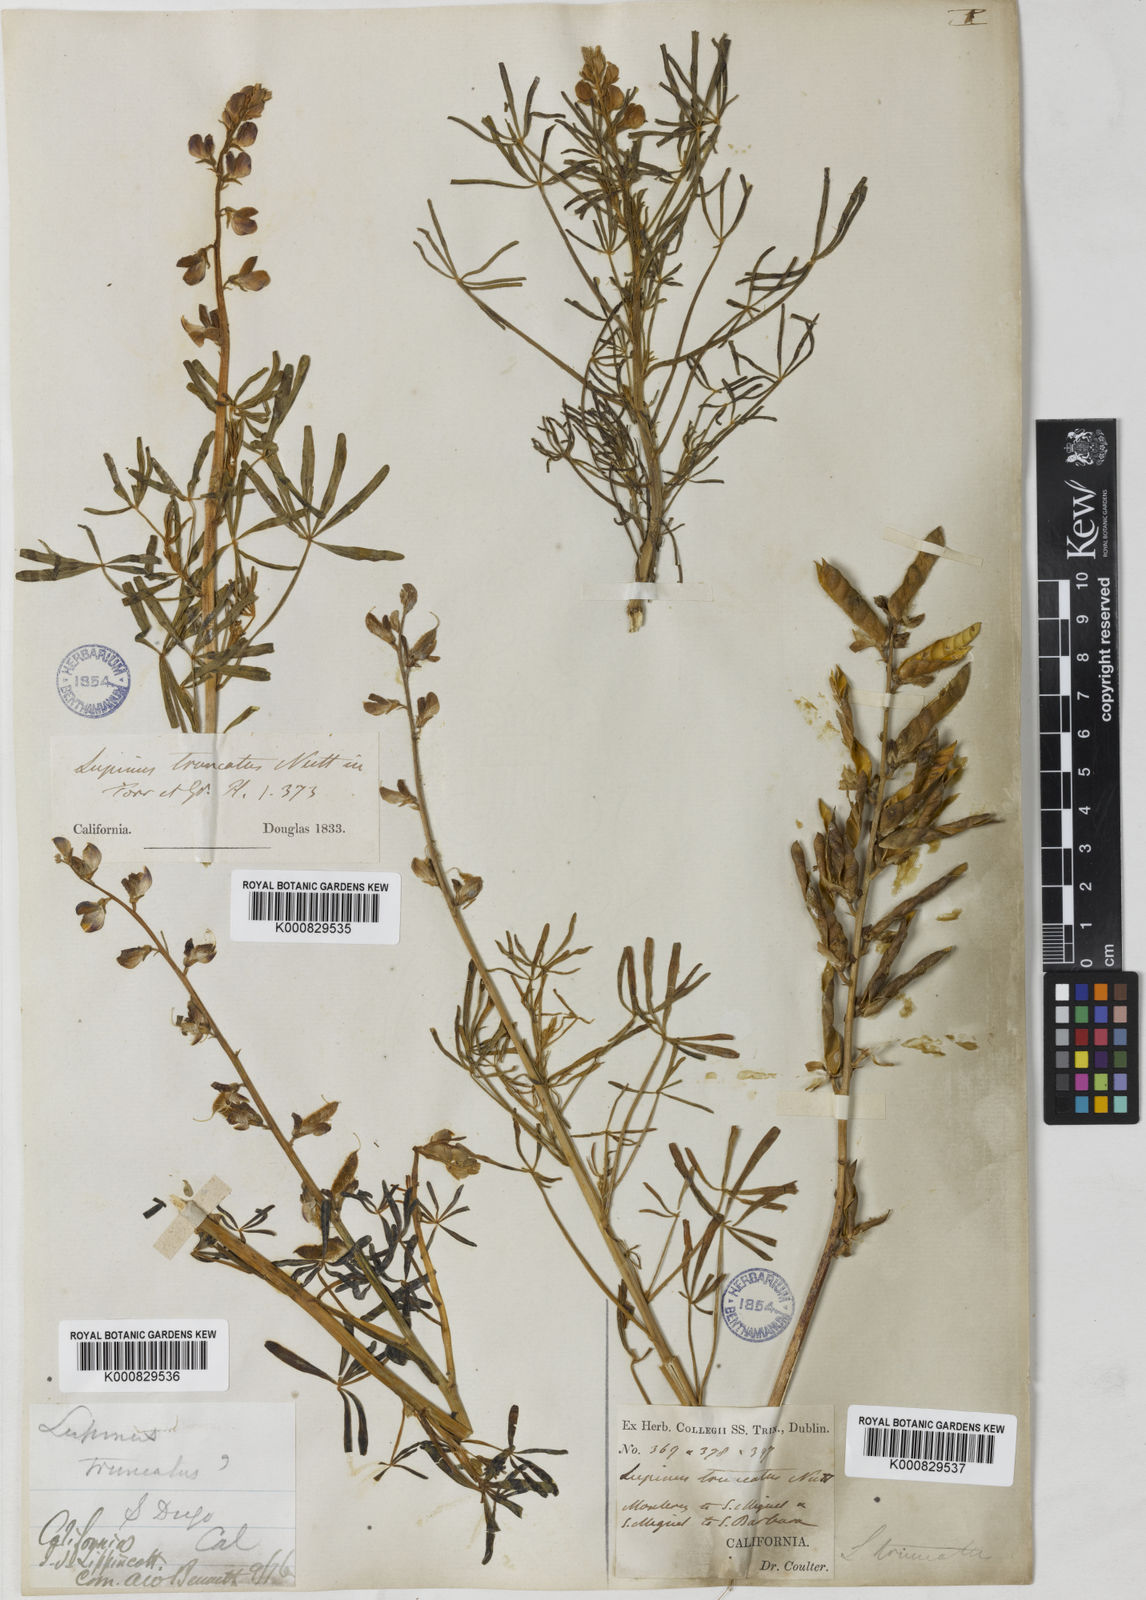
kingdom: Plantae
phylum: Tracheophyta
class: Magnoliopsida
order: Fabales
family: Fabaceae
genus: Lupinus
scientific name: Lupinus truncatus
